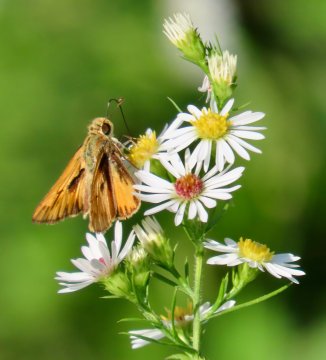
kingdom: Animalia
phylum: Arthropoda
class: Insecta
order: Lepidoptera
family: Hesperiidae
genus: Hylephila
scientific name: Hylephila phyleus
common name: Fiery Skipper
